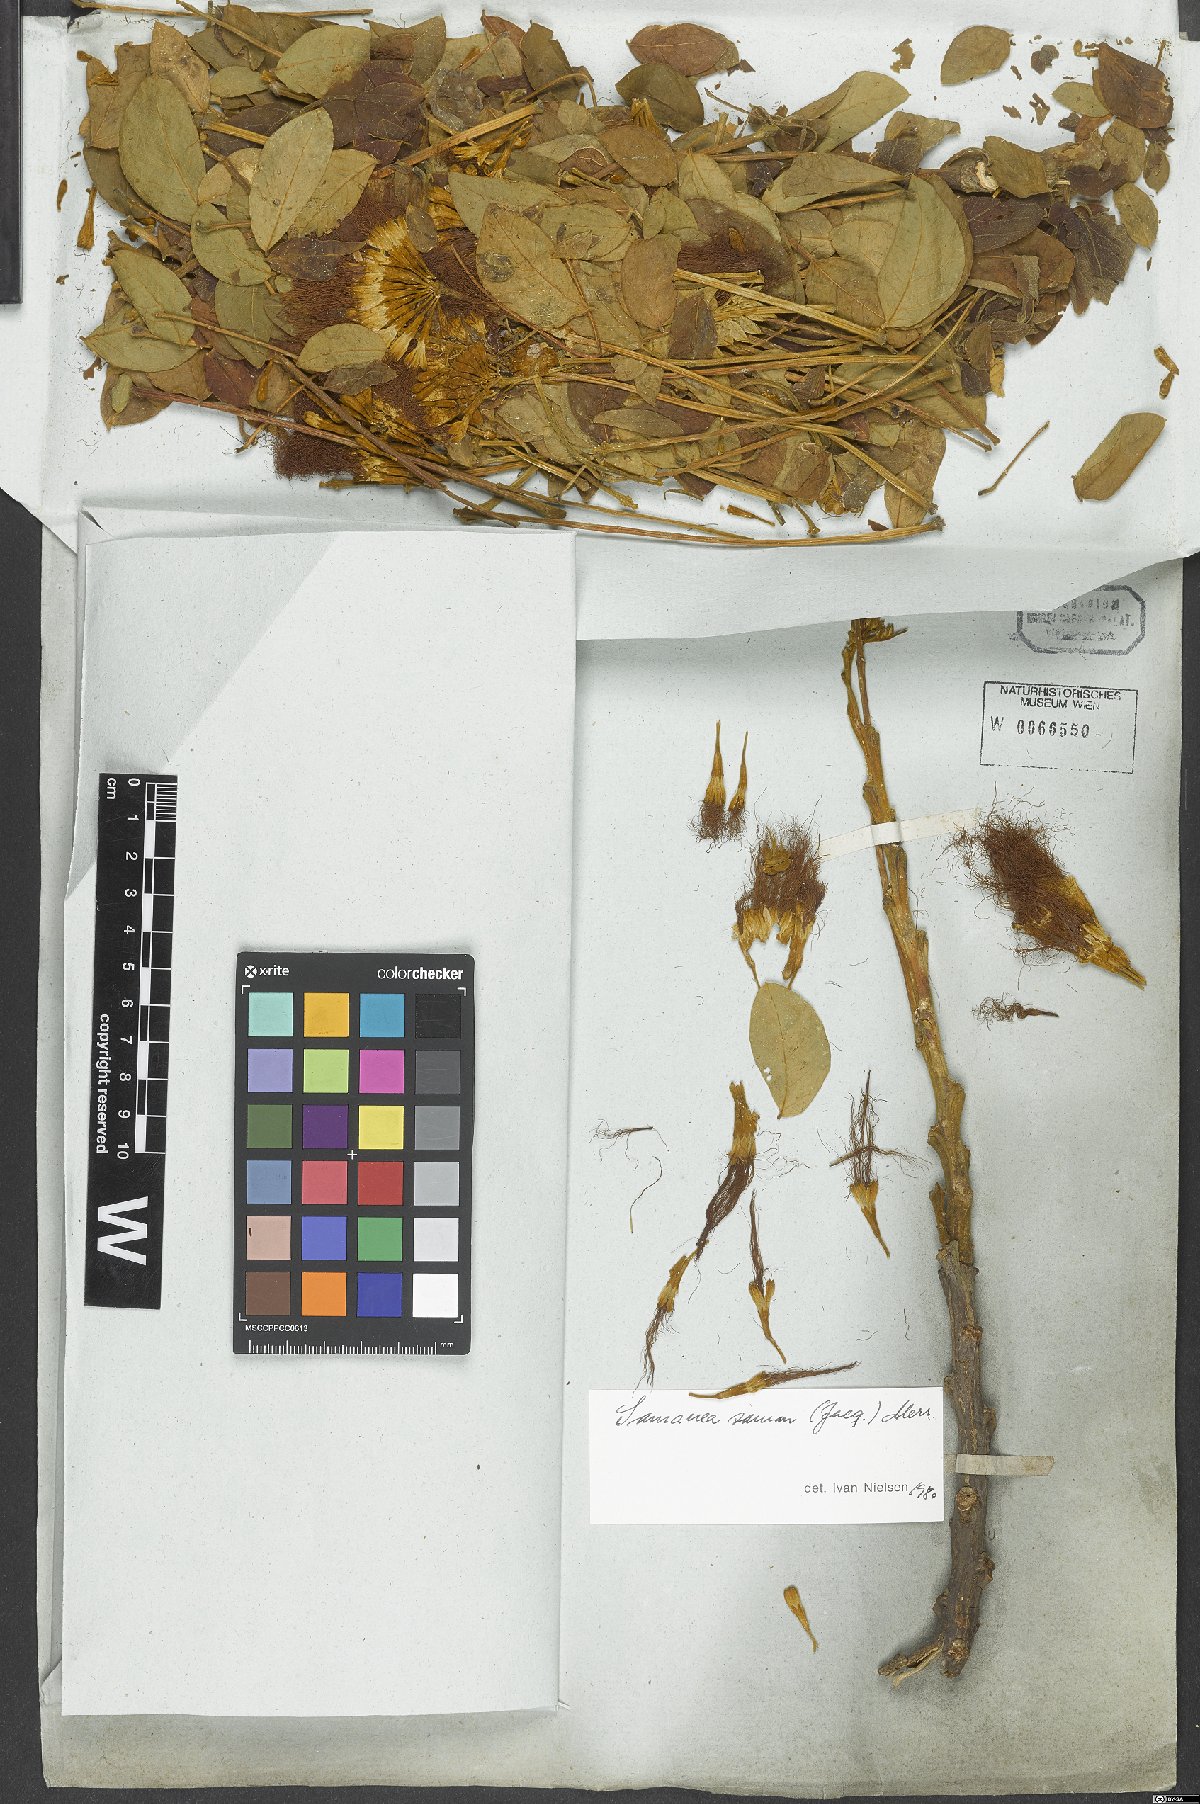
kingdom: Plantae
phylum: Tracheophyta
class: Magnoliopsida
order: Fabales
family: Fabaceae
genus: Samanea
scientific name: Samanea saman
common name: Raintree
